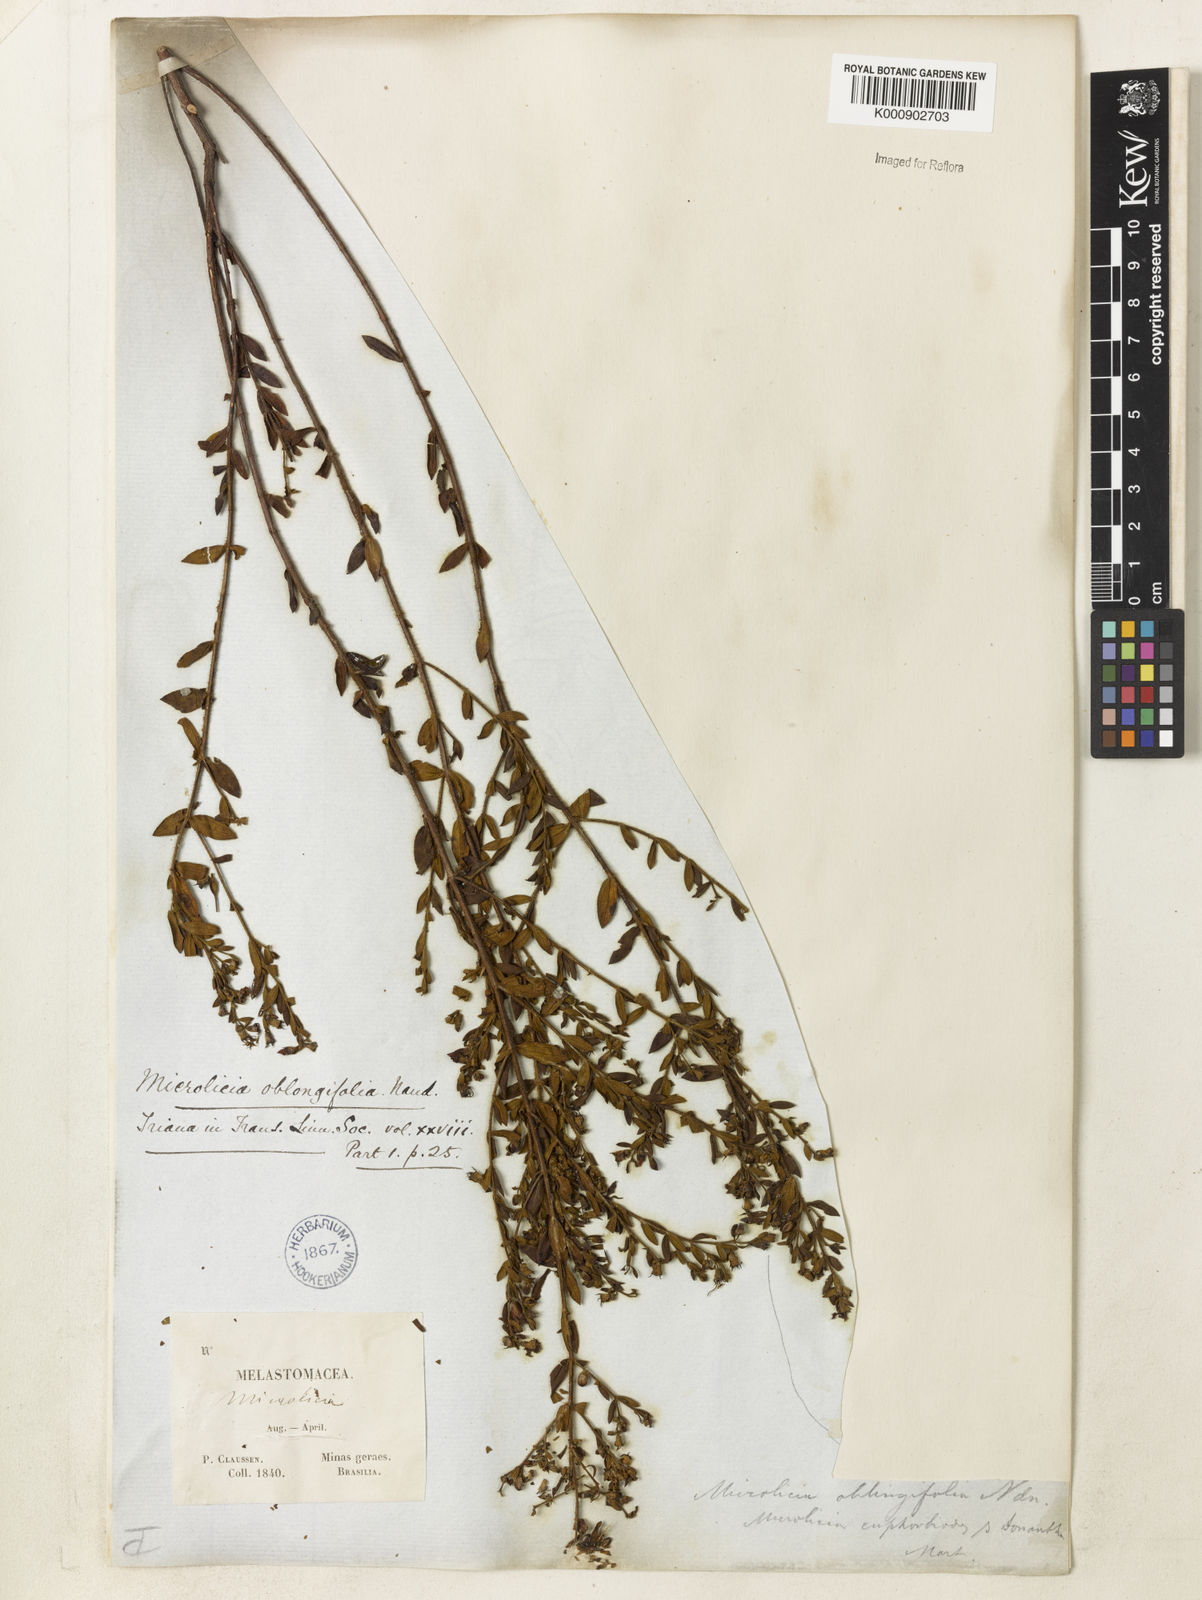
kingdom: Plantae
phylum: Tracheophyta
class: Magnoliopsida
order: Myrtales
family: Melastomataceae
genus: Microlicia
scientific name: Microlicia euphorbioides
